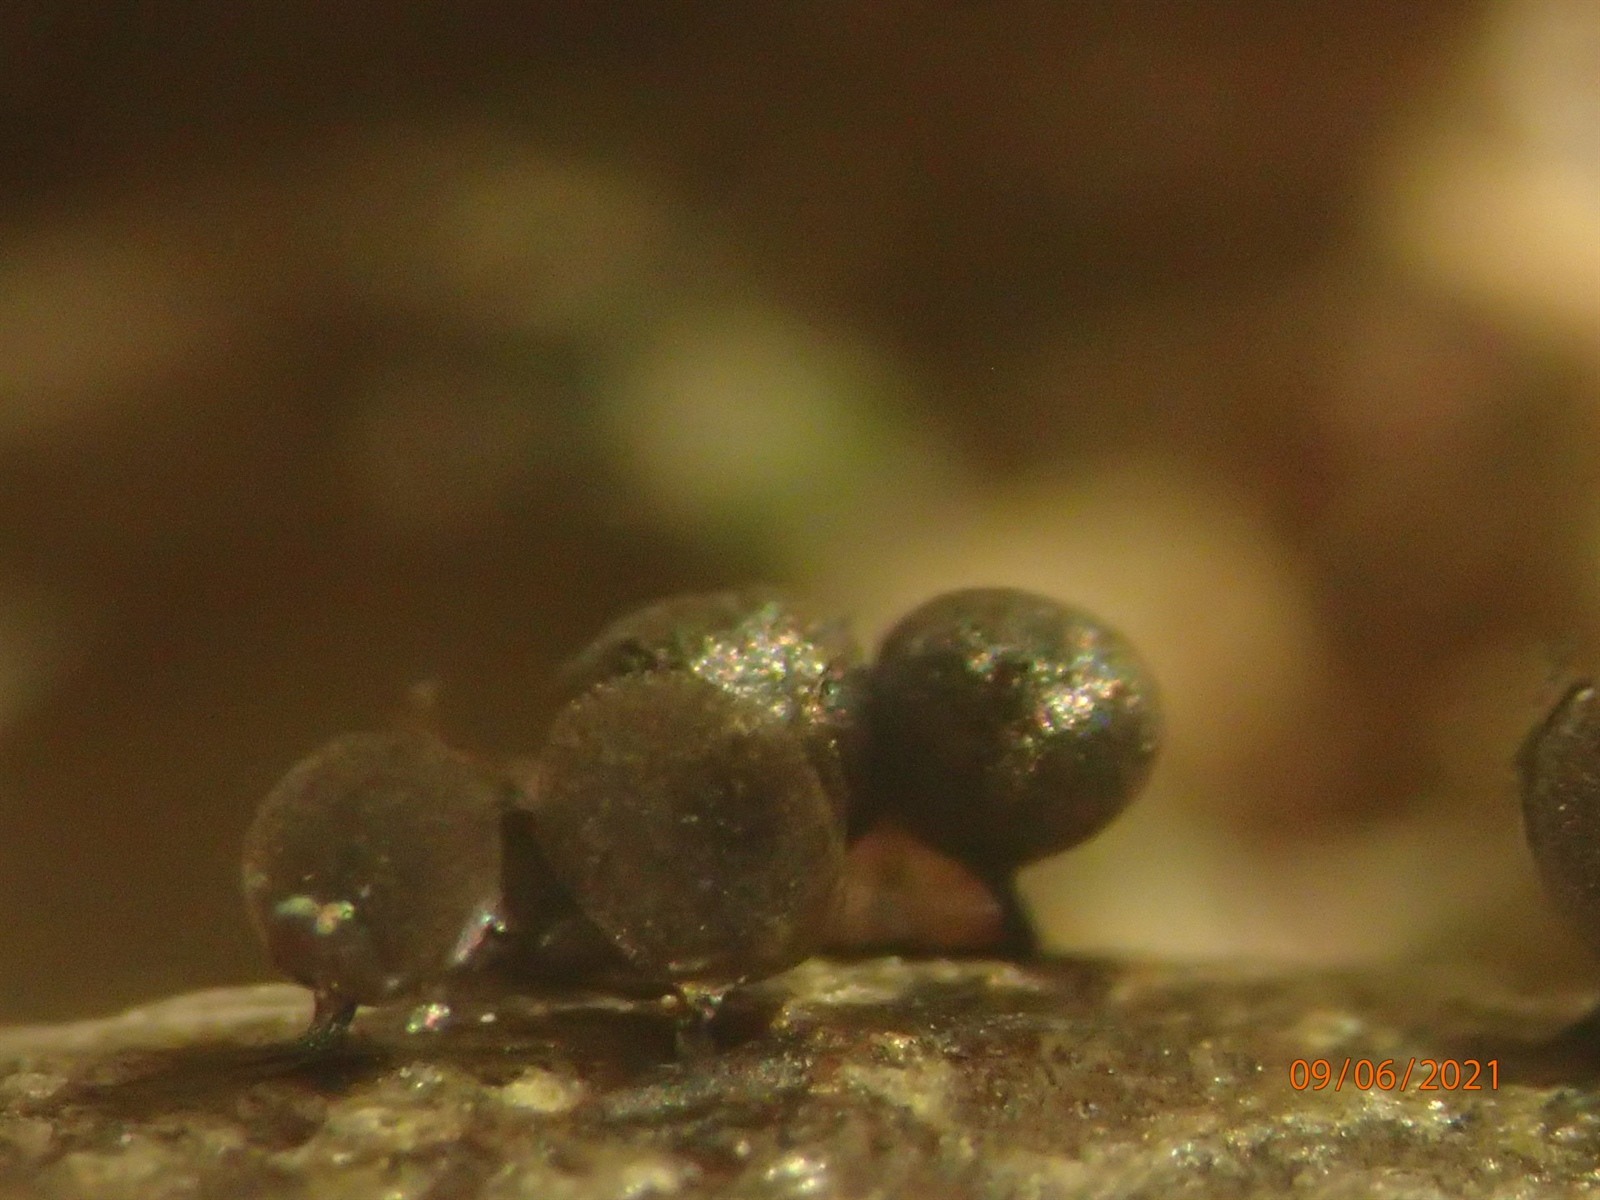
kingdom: Protozoa
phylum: Mycetozoa
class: Myxomycetes
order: Stemonitidales
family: Stemonitidaceae
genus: Lamproderma
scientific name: Lamproderma piriforme
